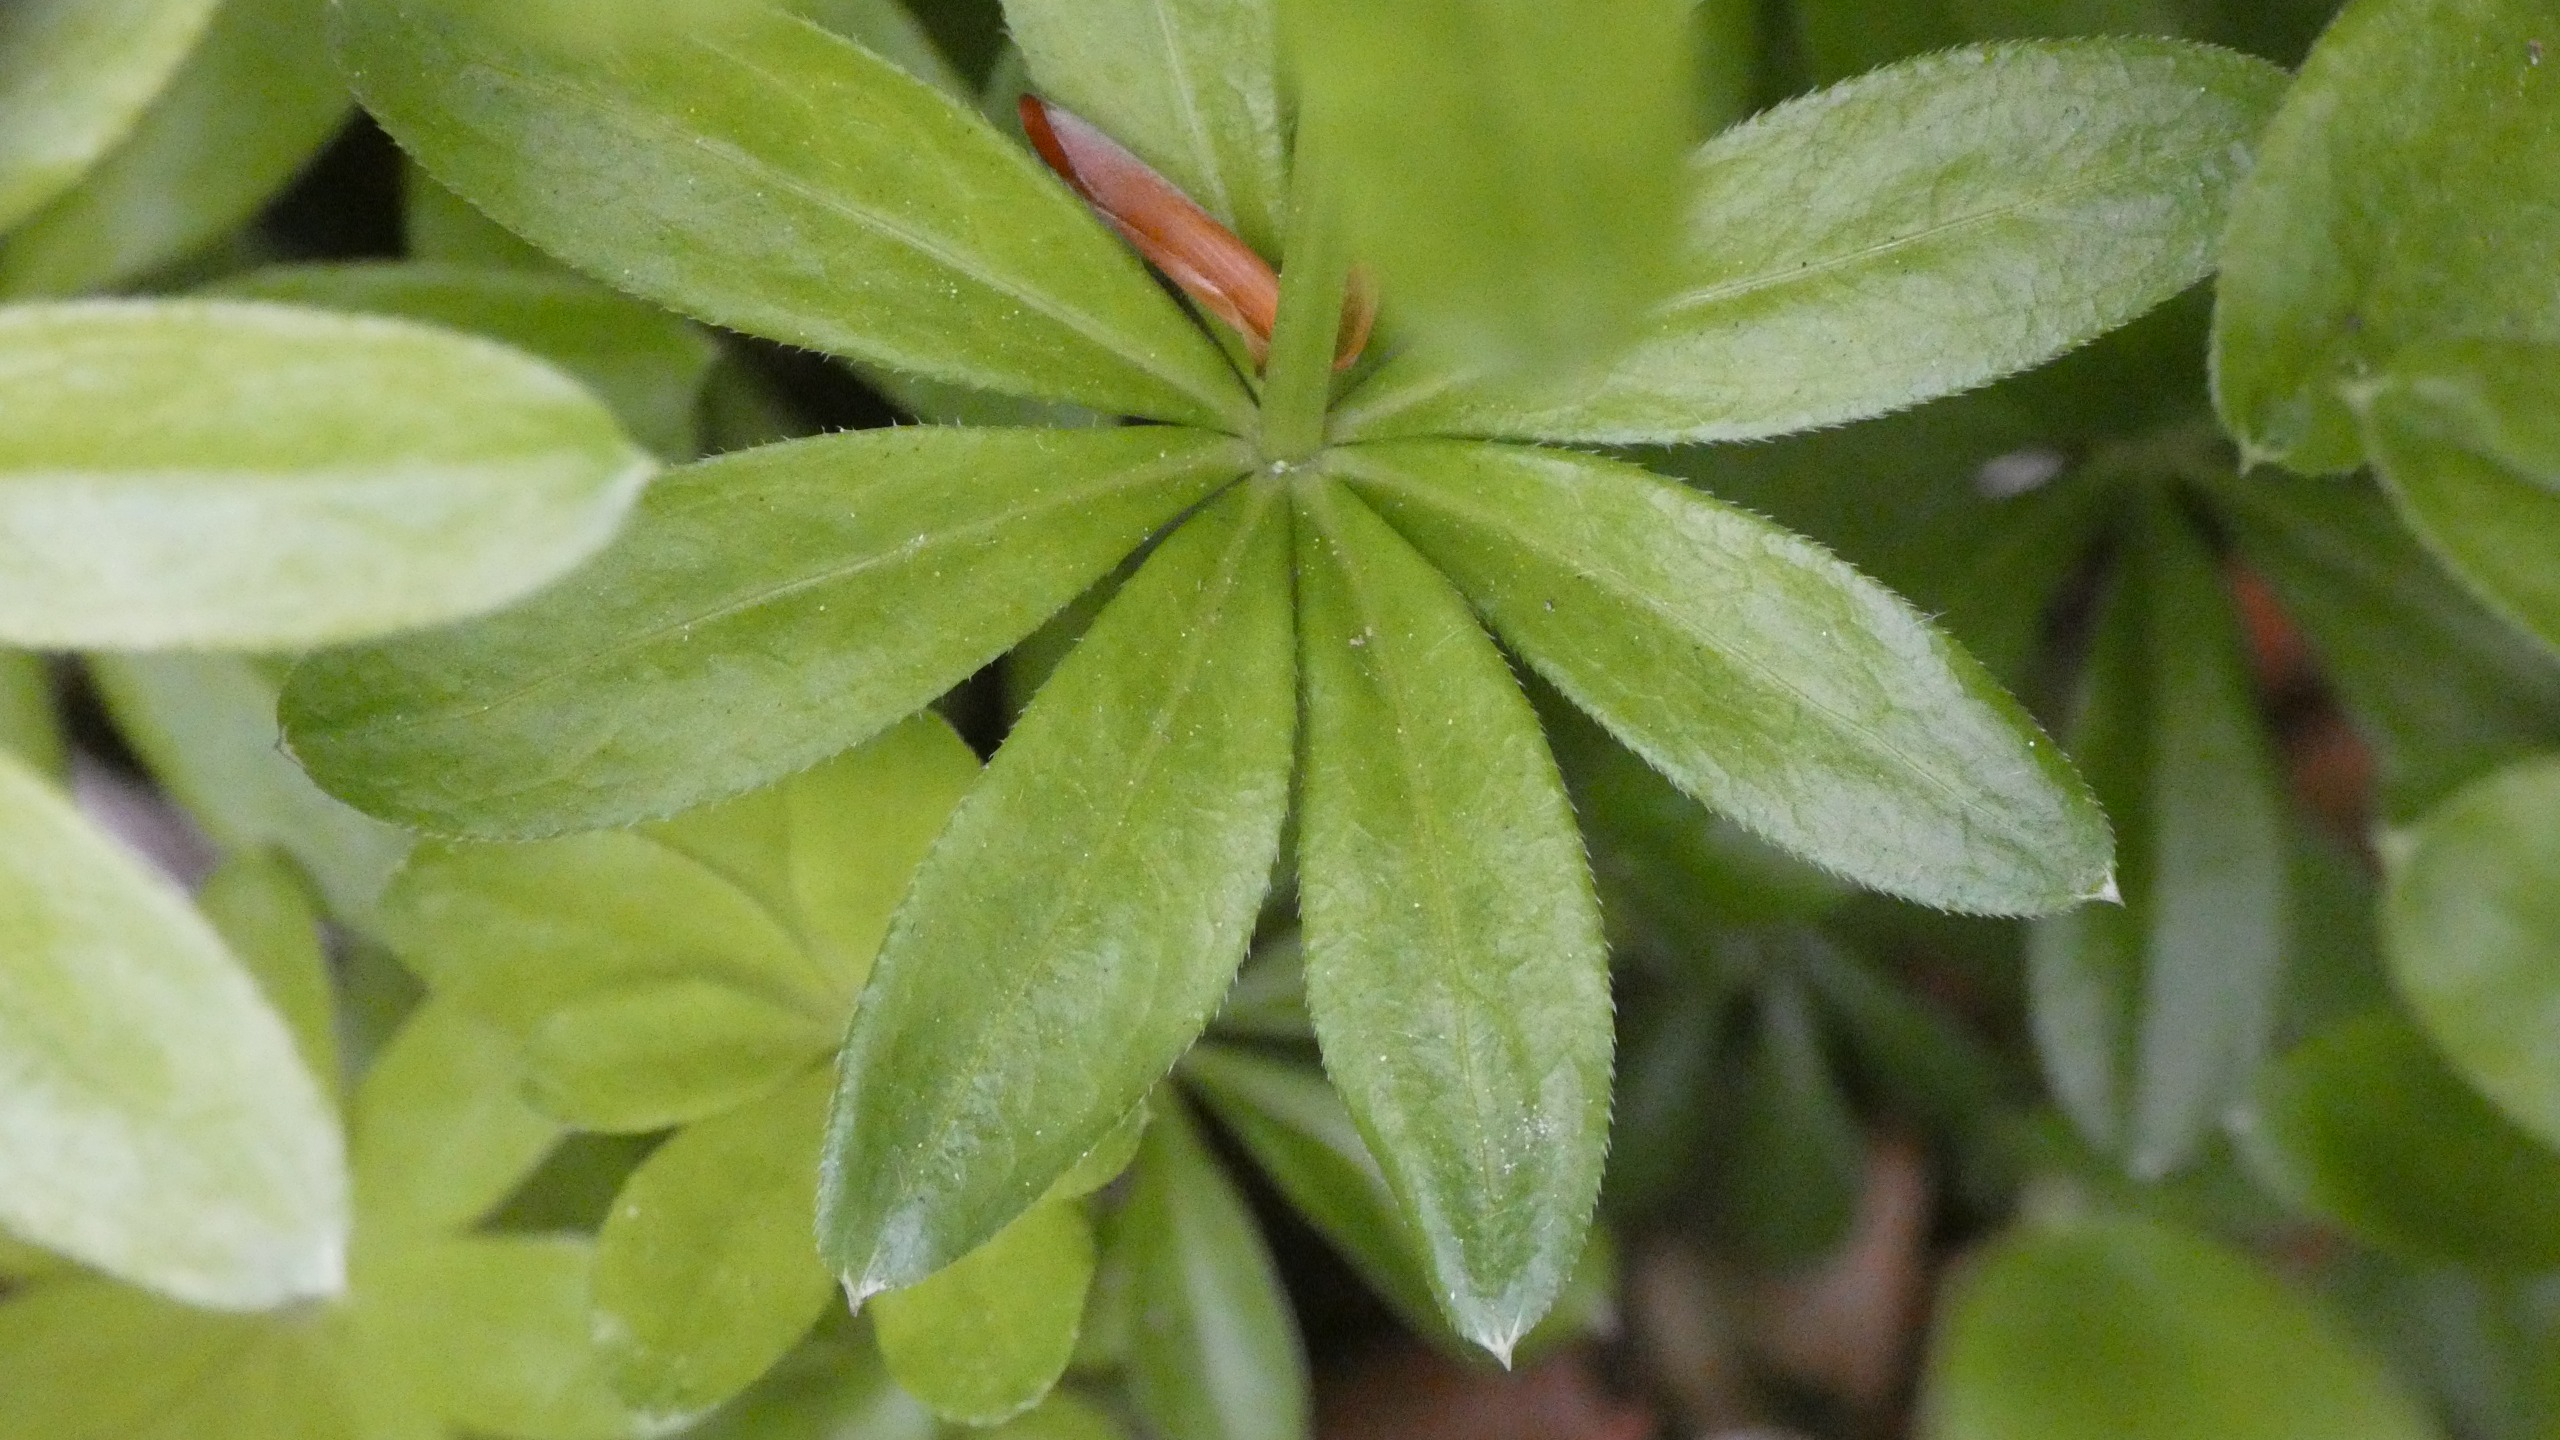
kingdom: Plantae
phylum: Tracheophyta
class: Magnoliopsida
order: Gentianales
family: Rubiaceae
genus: Galium
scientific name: Galium odoratum
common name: Skovmærke
